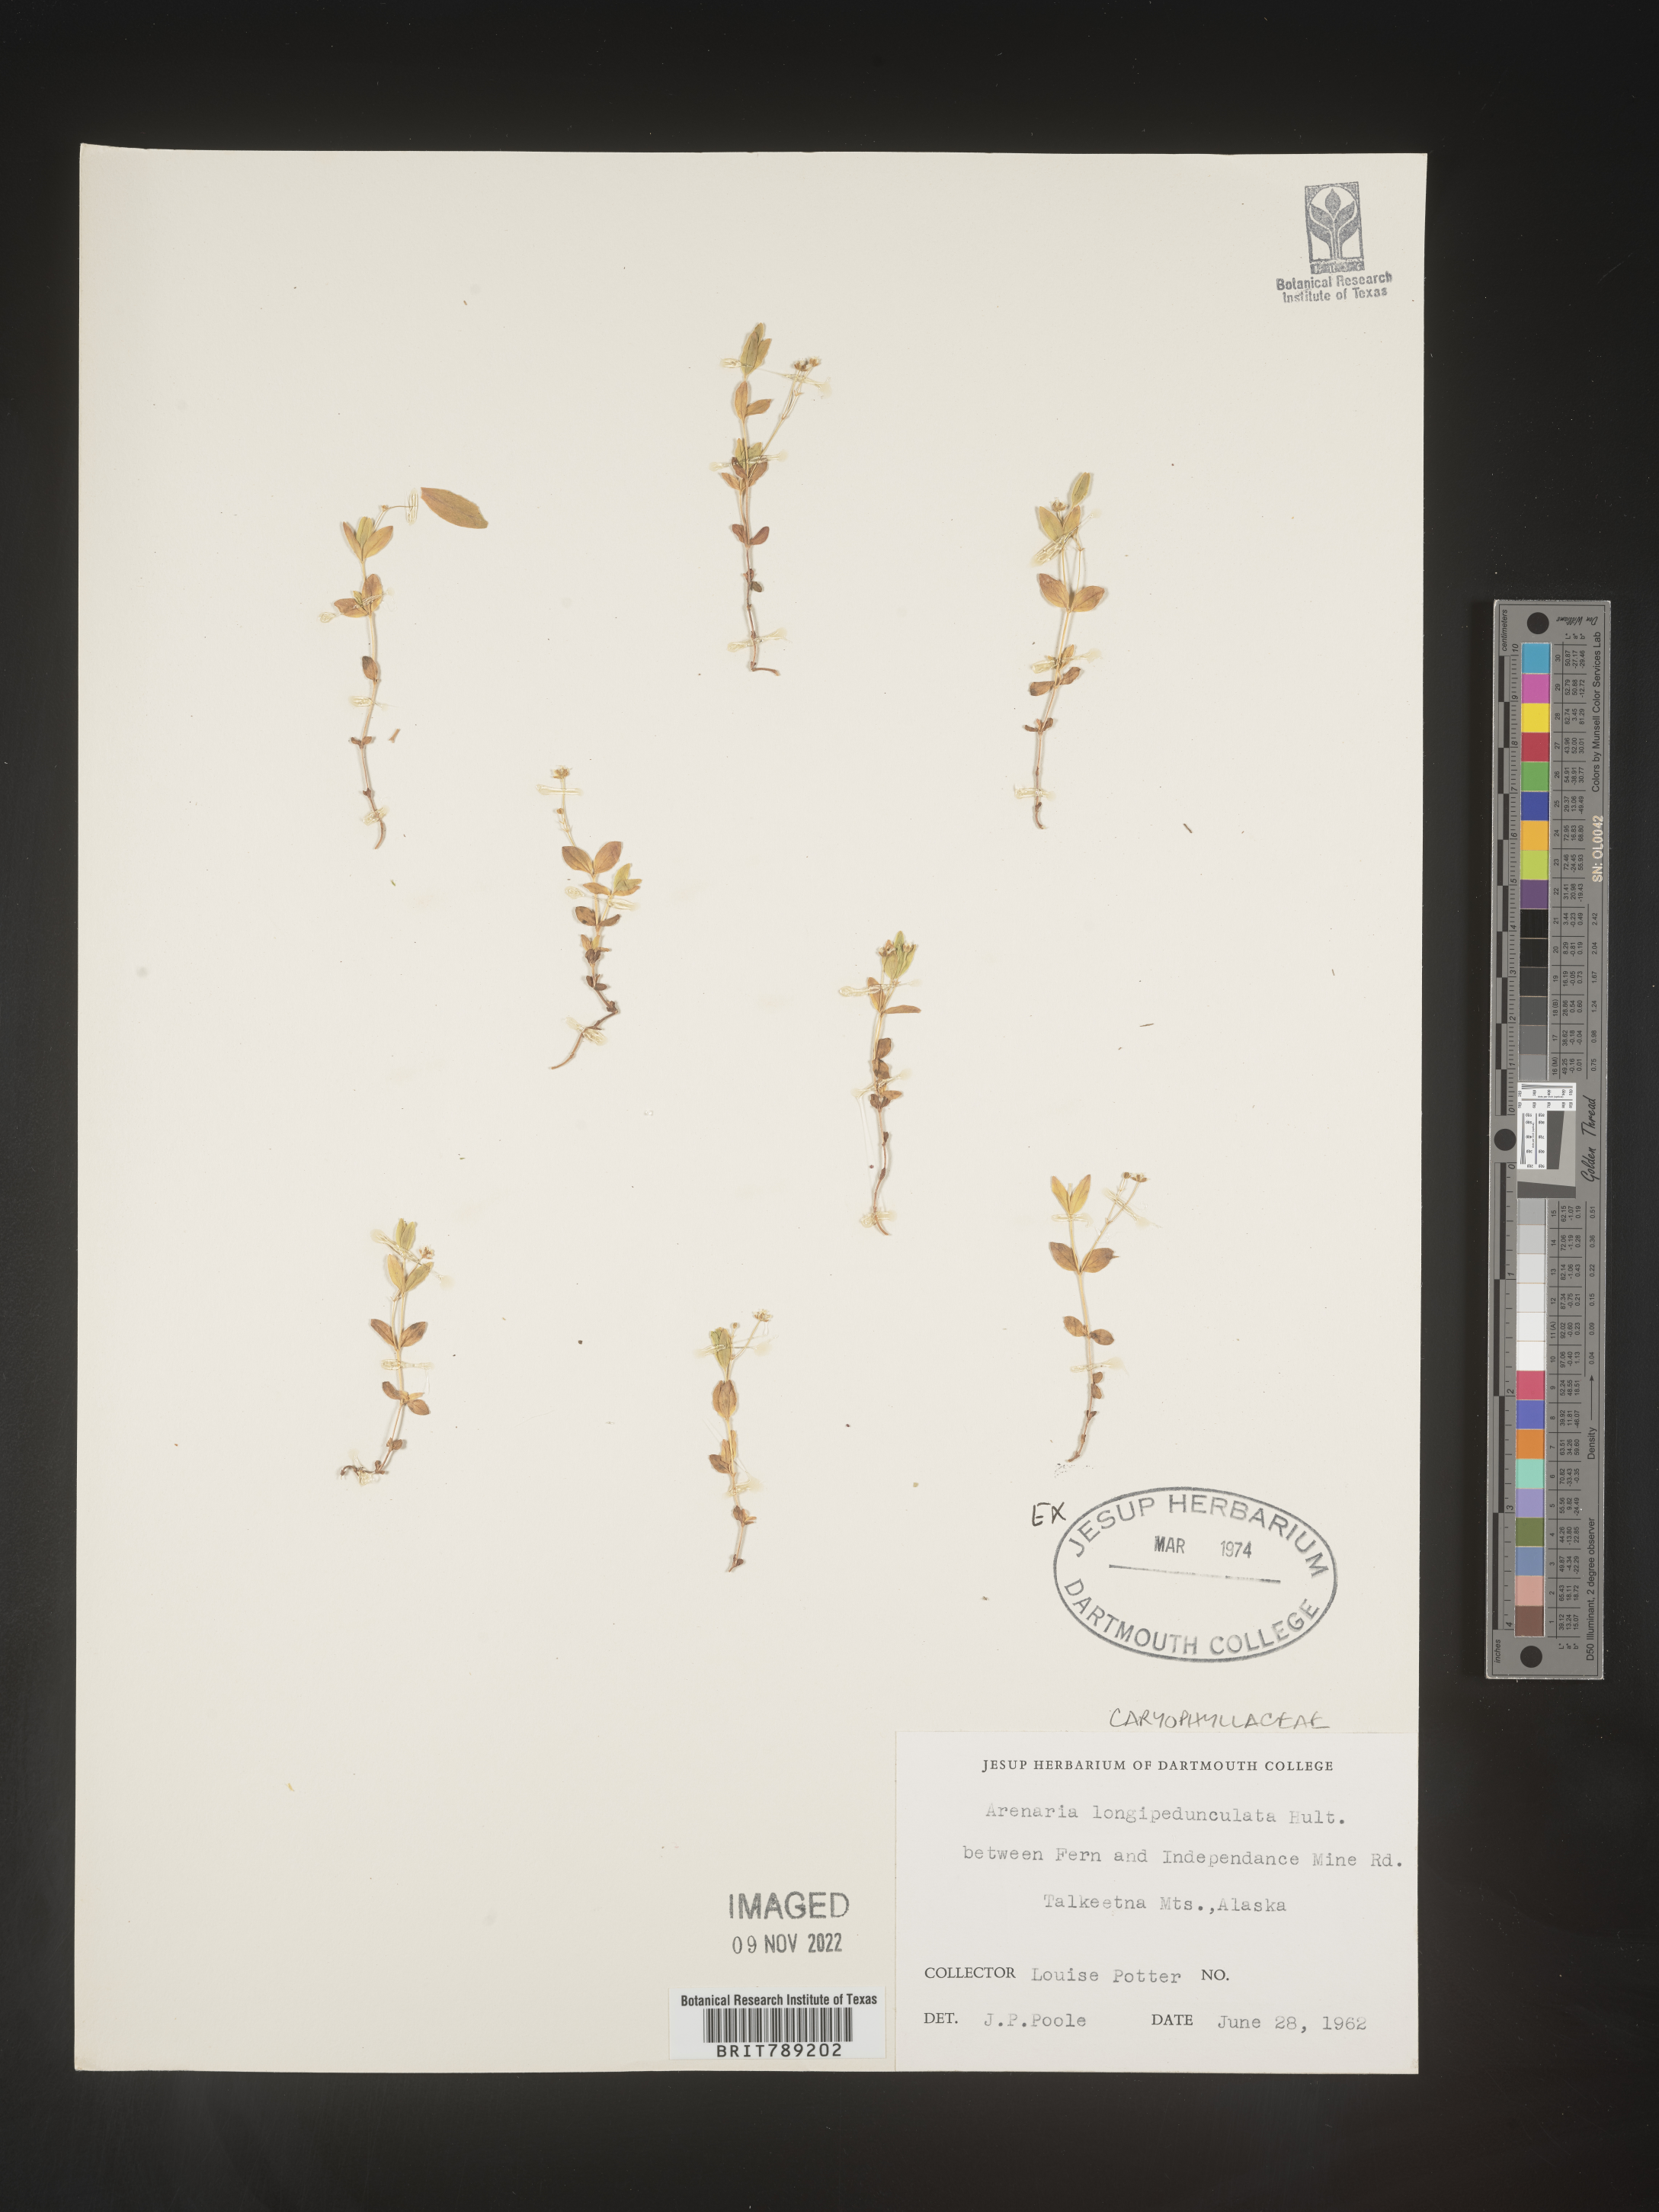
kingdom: Plantae
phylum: Tracheophyta
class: Magnoliopsida
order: Caryophyllales
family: Caryophyllaceae
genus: Arenaria
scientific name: Arenaria
